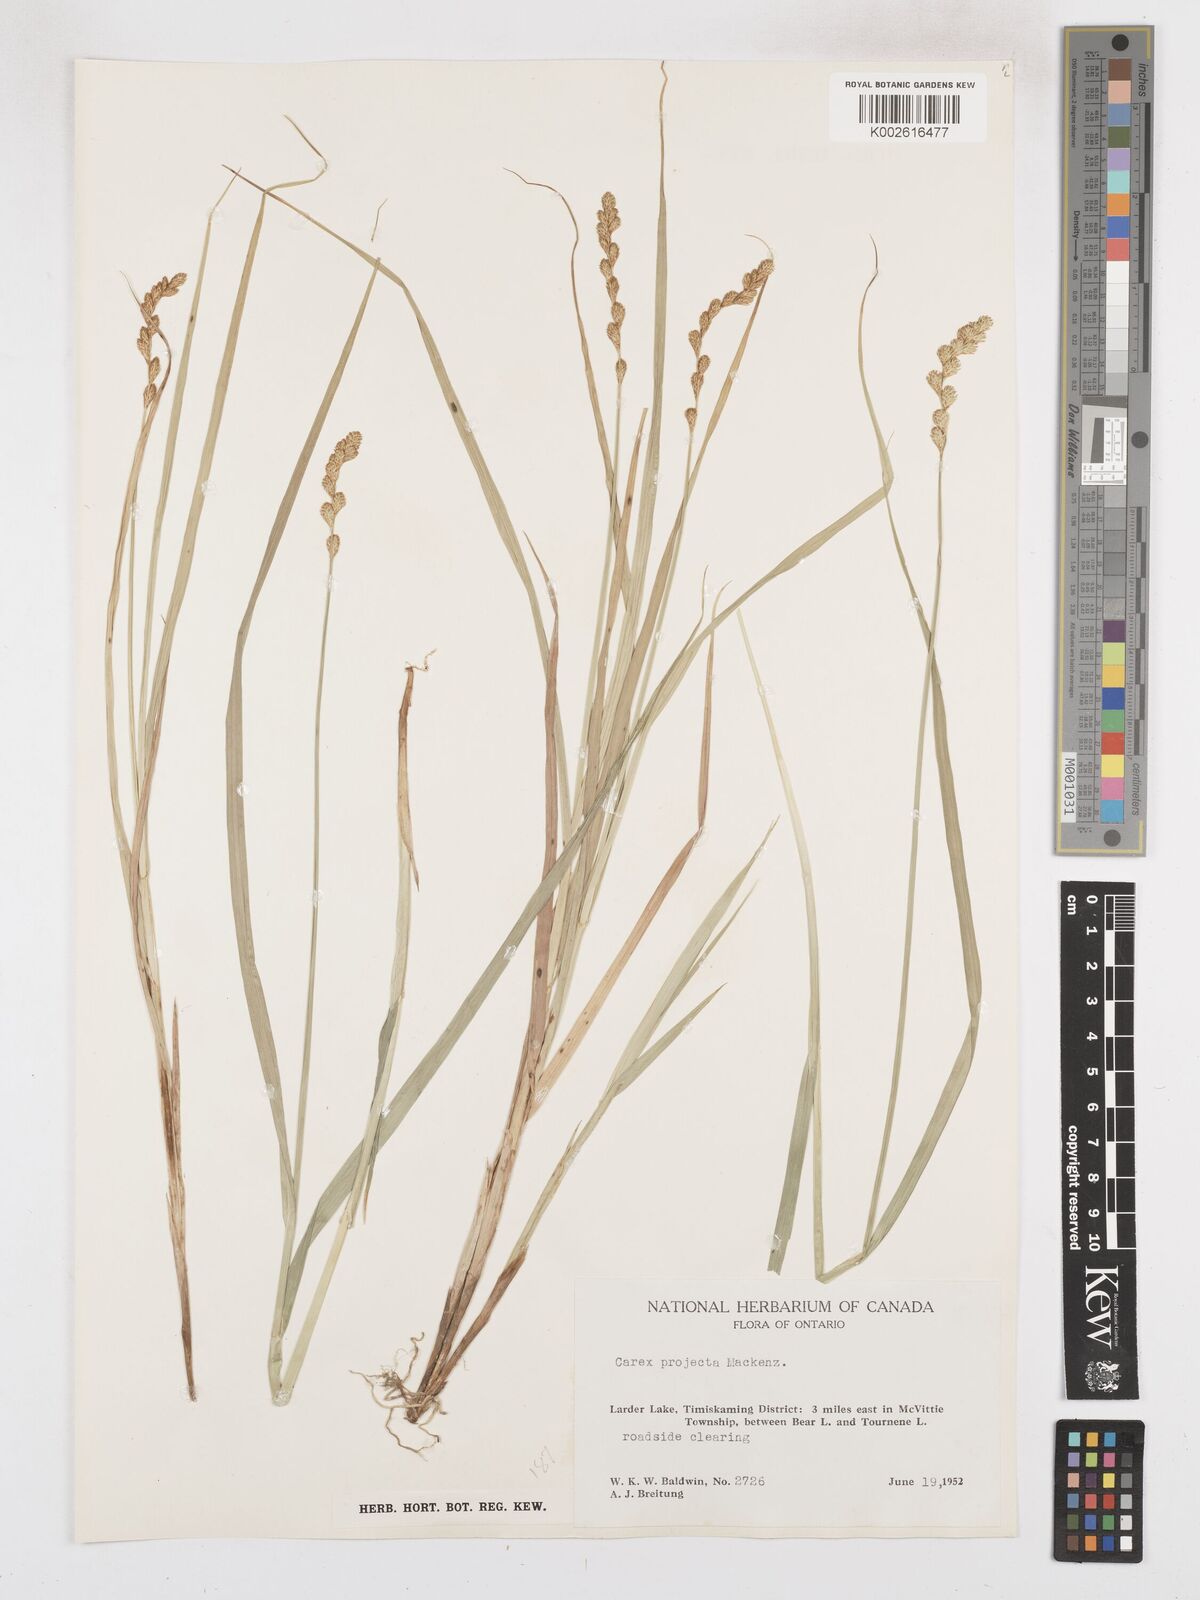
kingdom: Plantae
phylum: Tracheophyta
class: Liliopsida
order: Poales
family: Cyperaceae
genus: Carex
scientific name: Carex projecta
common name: Loose-headed oval sedge
